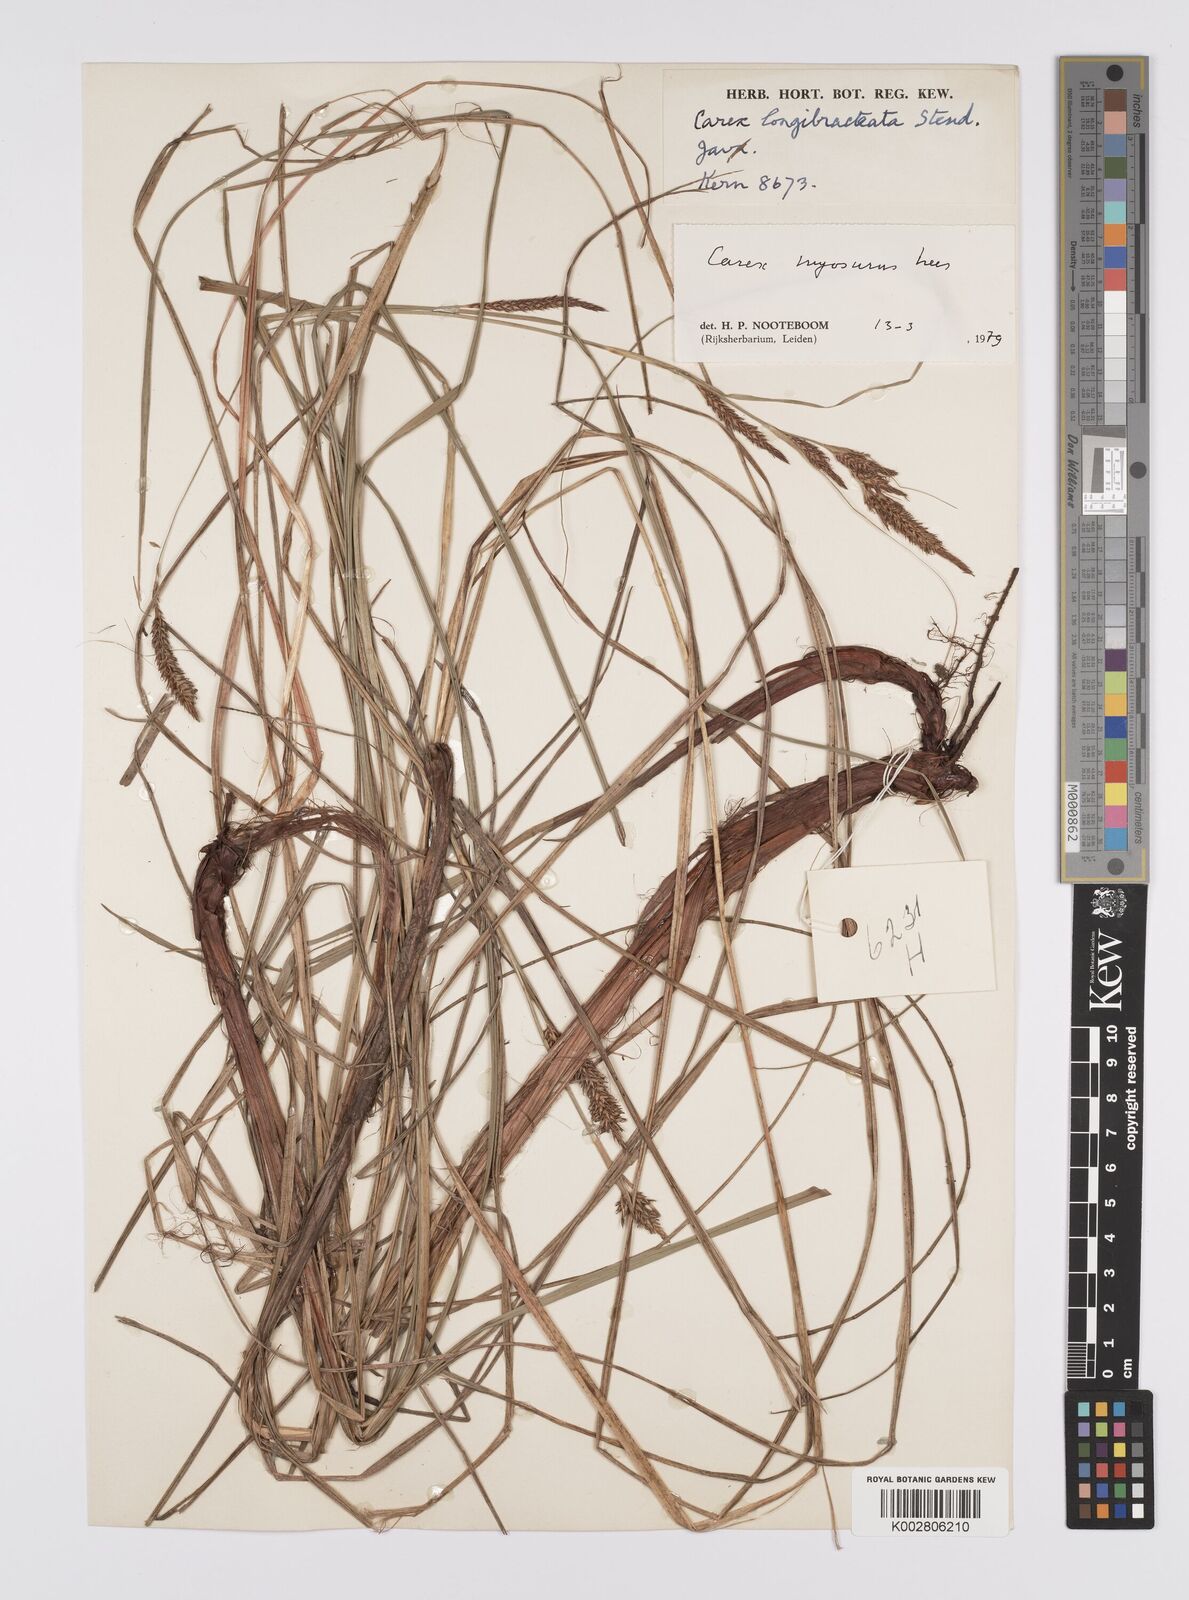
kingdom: Plantae
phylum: Tracheophyta
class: Liliopsida
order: Poales
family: Cyperaceae
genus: Carex
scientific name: Carex myosurus
